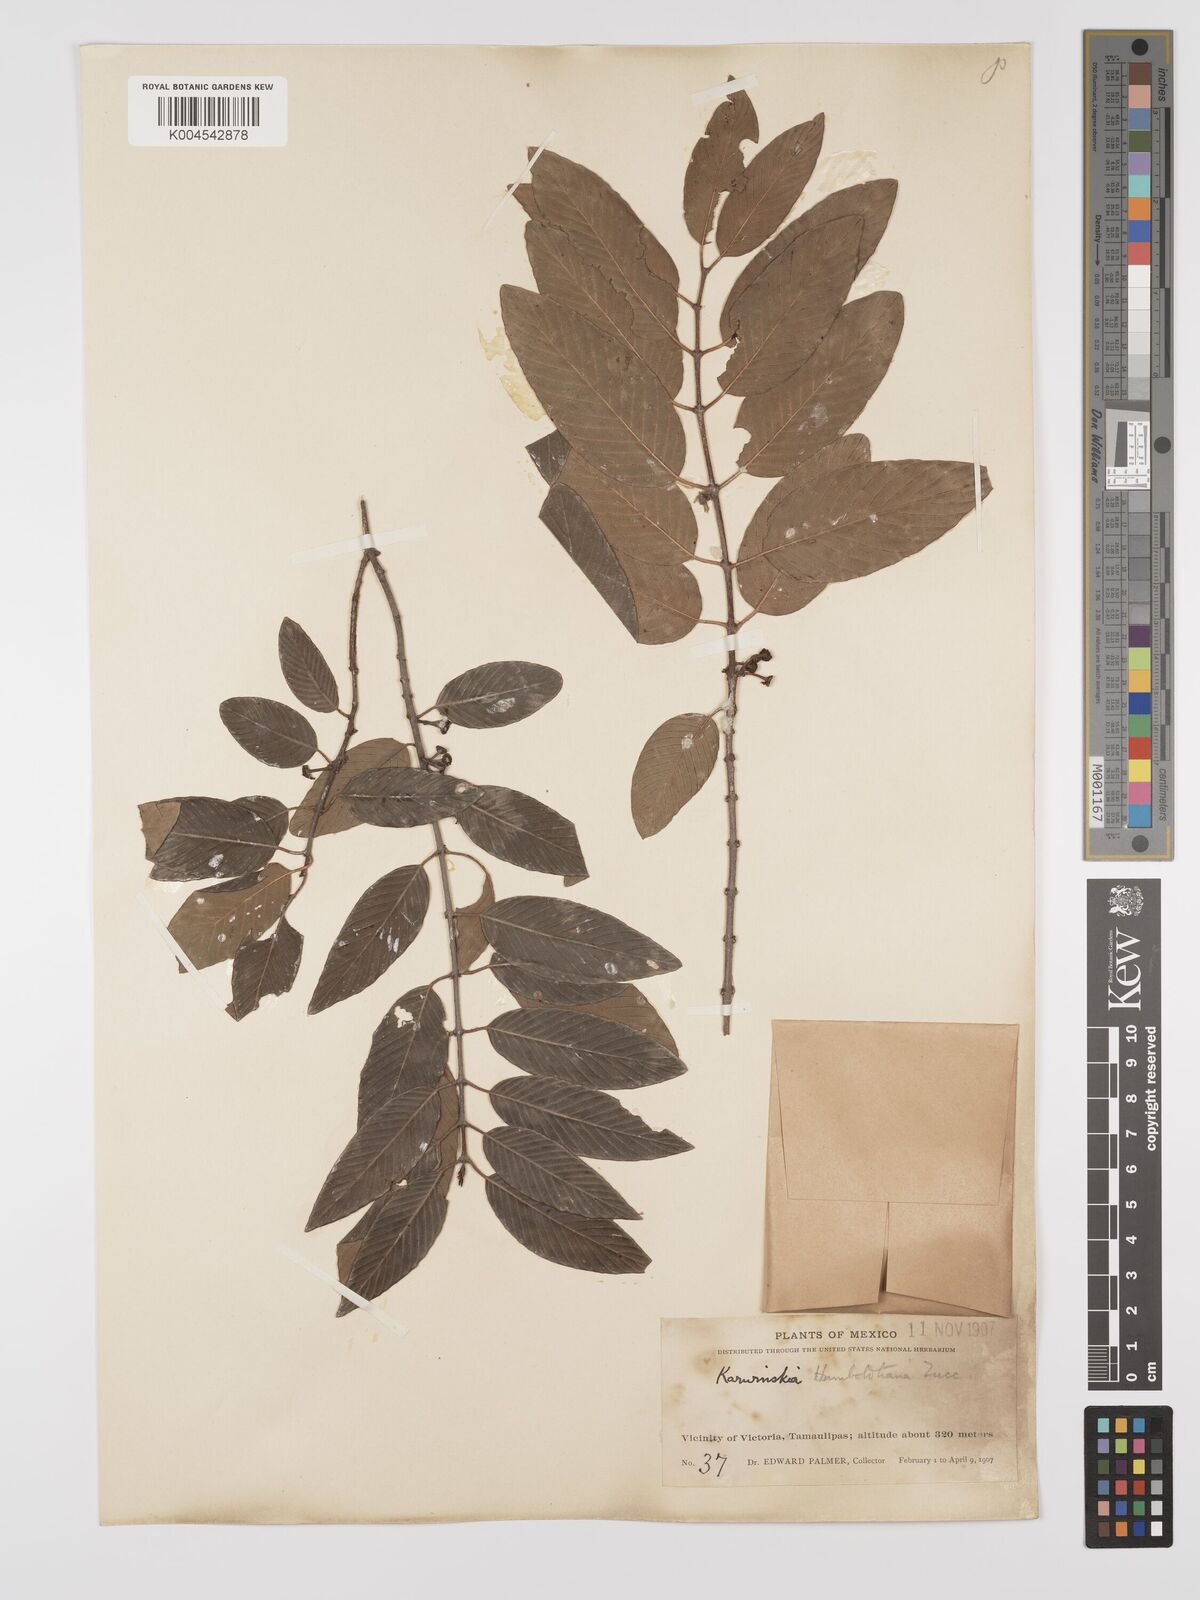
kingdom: Plantae
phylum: Tracheophyta
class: Magnoliopsida
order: Rosales
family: Rhamnaceae
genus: Karwinskia
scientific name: Karwinskia humboldtiana
